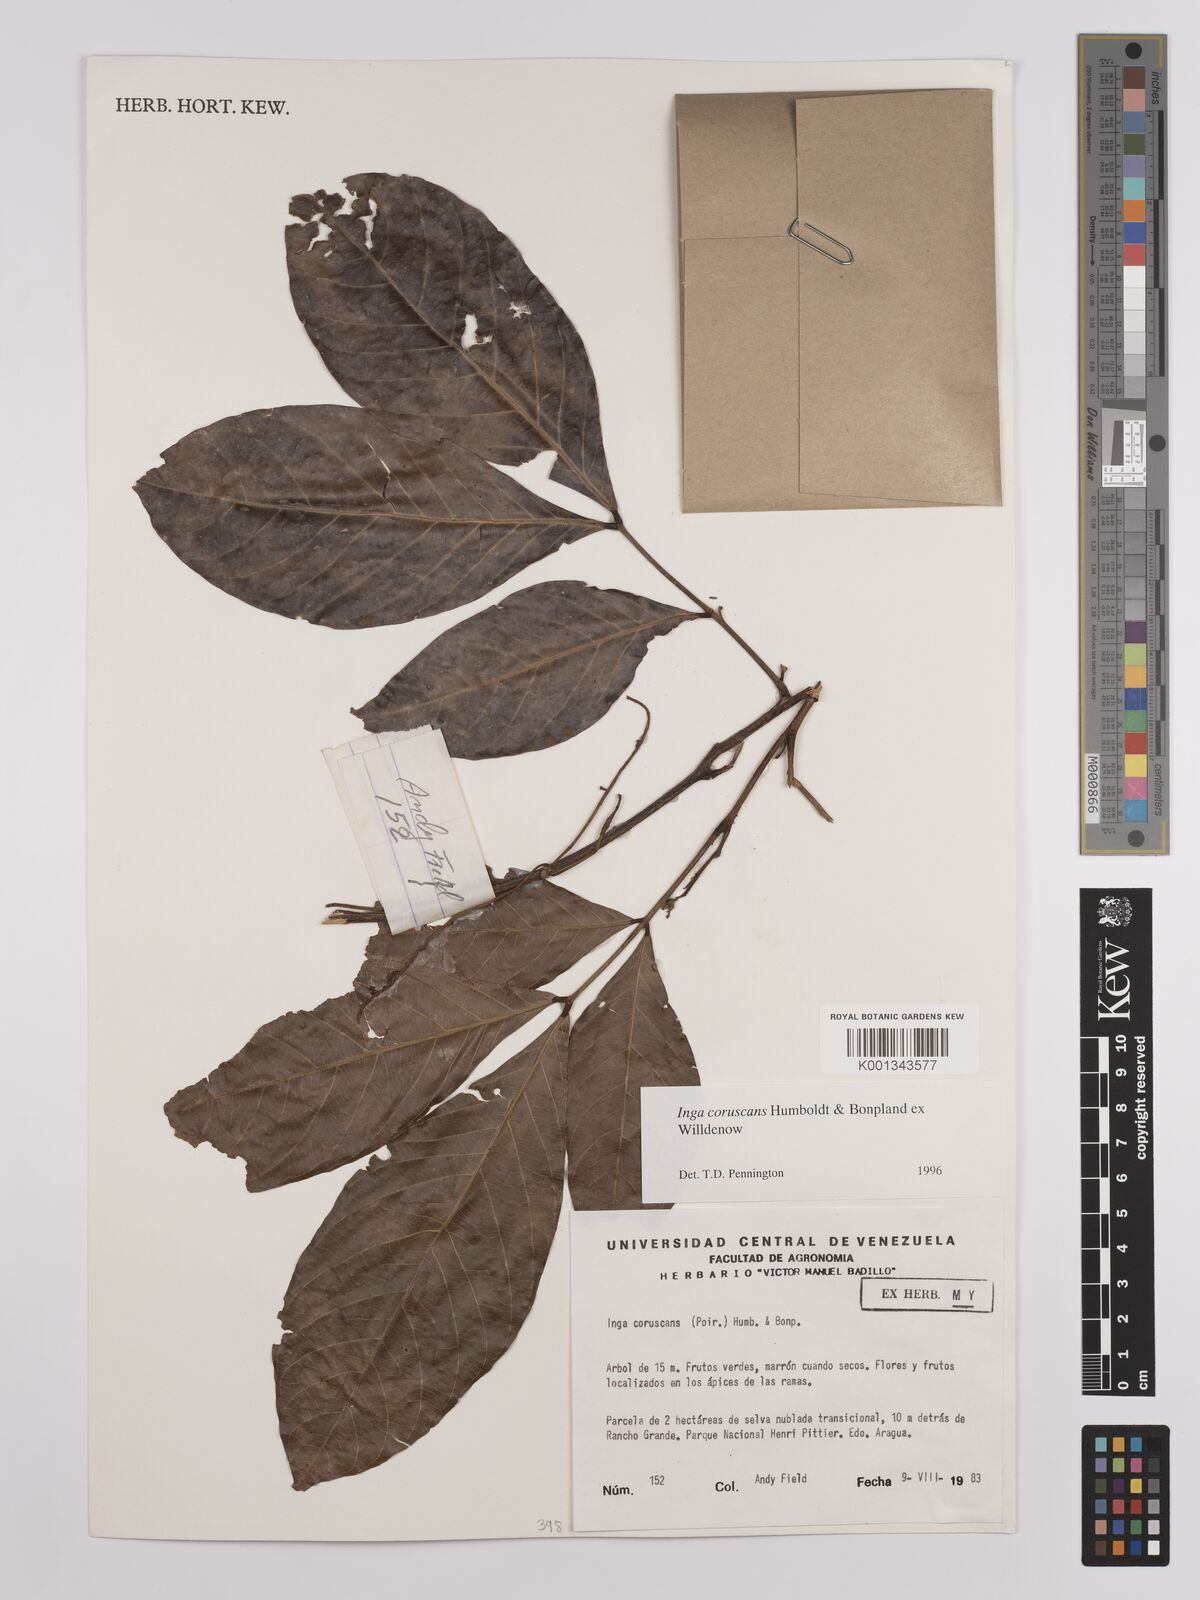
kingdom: Plantae
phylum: Tracheophyta
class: Magnoliopsida
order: Fabales
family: Fabaceae
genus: Inga
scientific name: Inga coruscans
